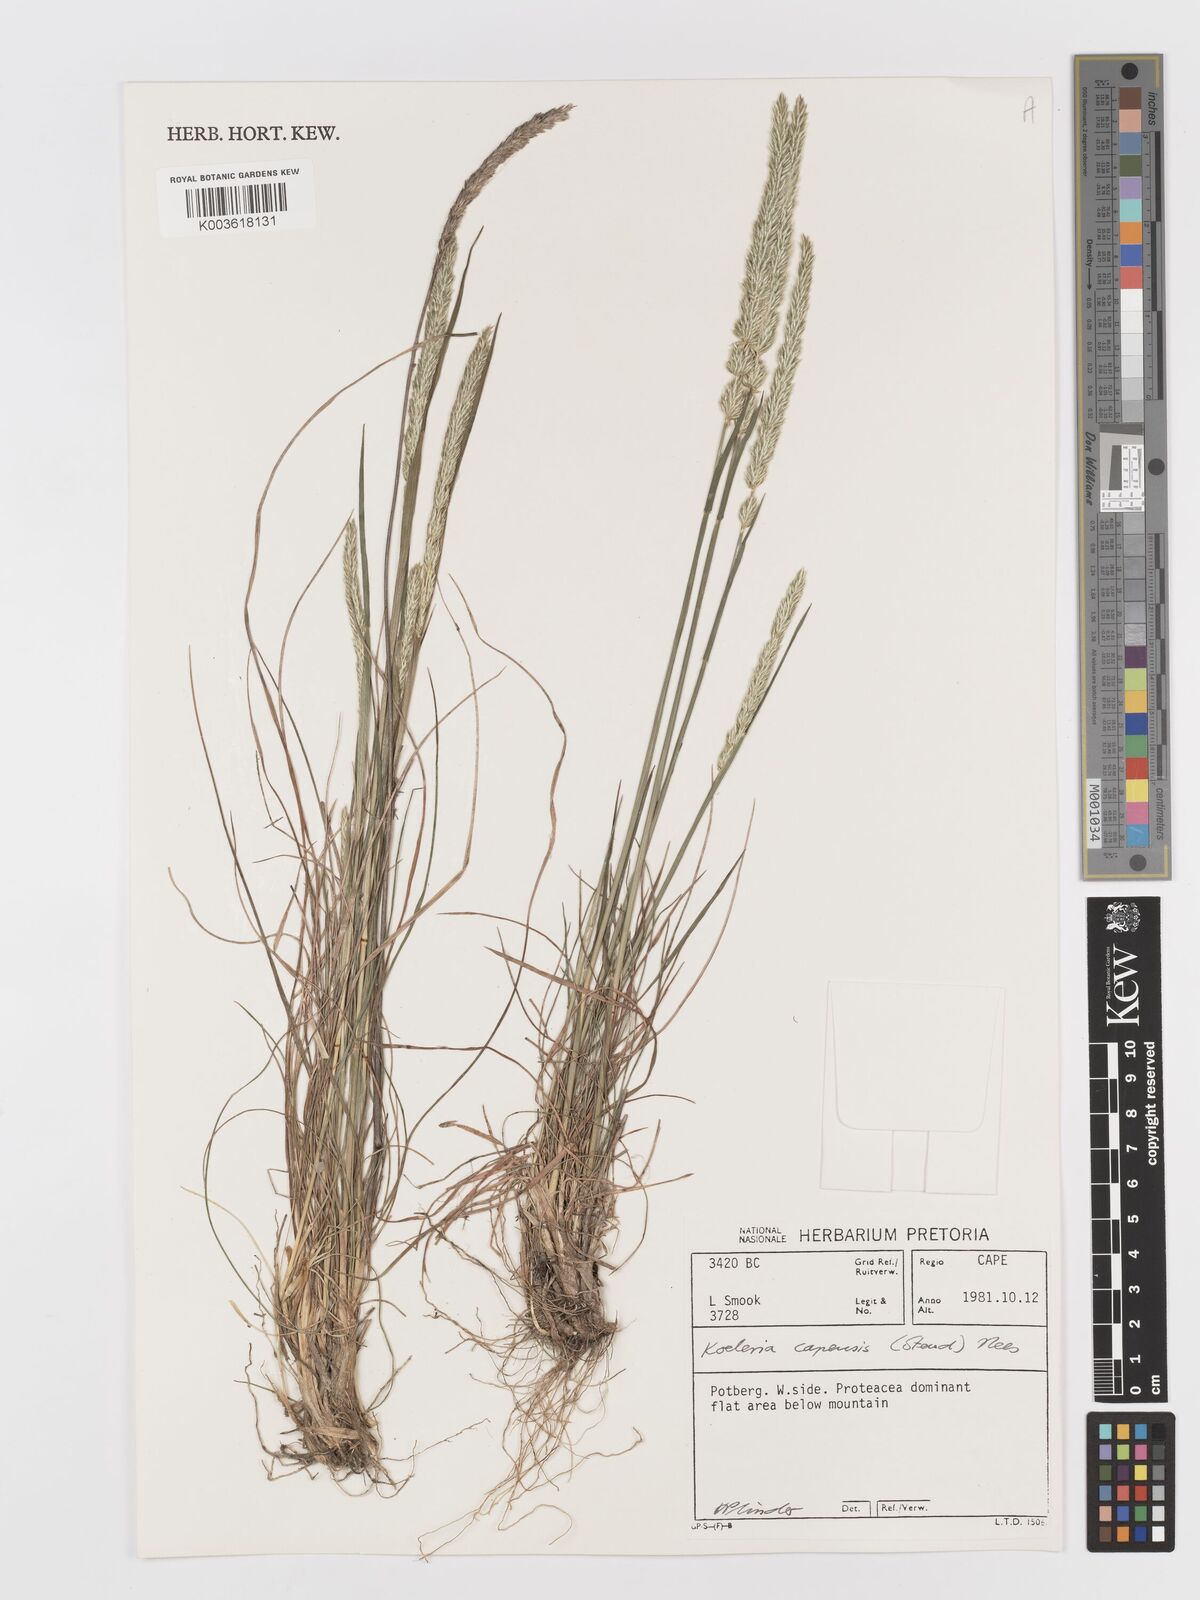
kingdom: Plantae
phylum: Tracheophyta
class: Liliopsida
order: Poales
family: Poaceae
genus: Koeleria
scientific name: Koeleria capensis
